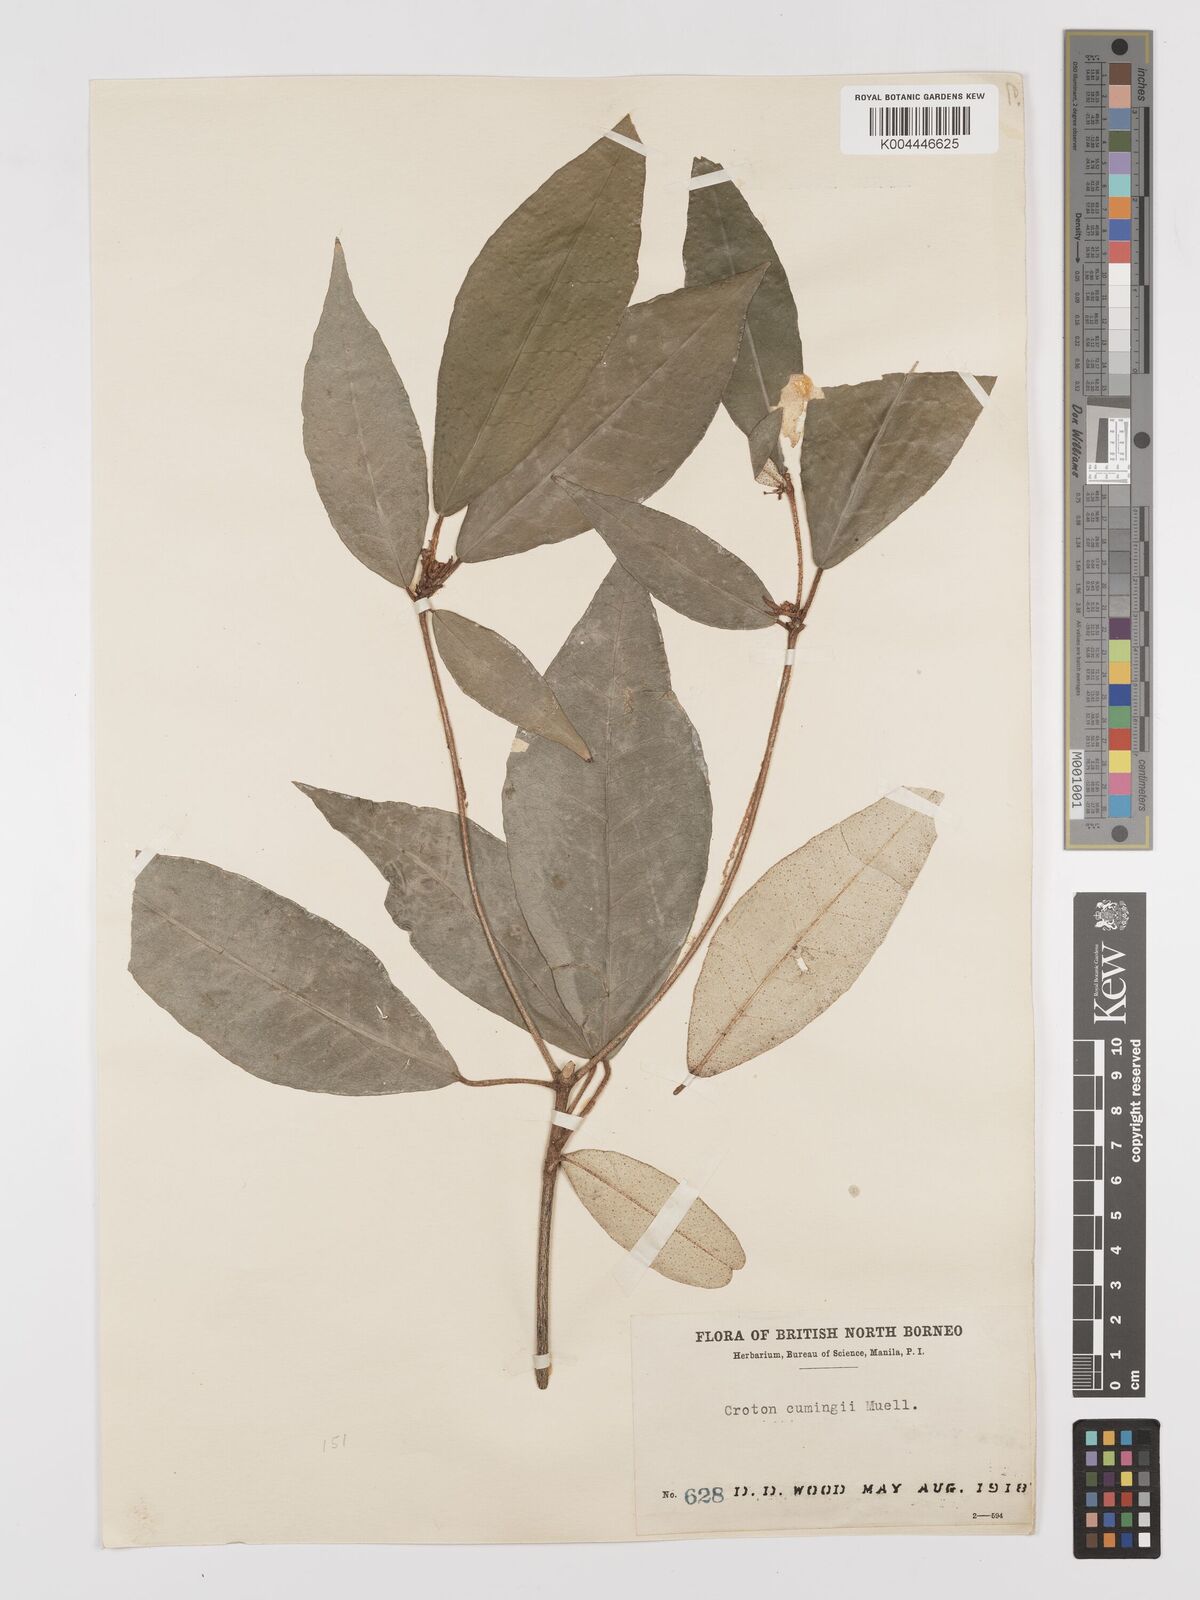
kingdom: Plantae
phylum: Tracheophyta
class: Magnoliopsida
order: Malpighiales
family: Euphorbiaceae
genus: Croton
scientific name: Croton cascarilloides
